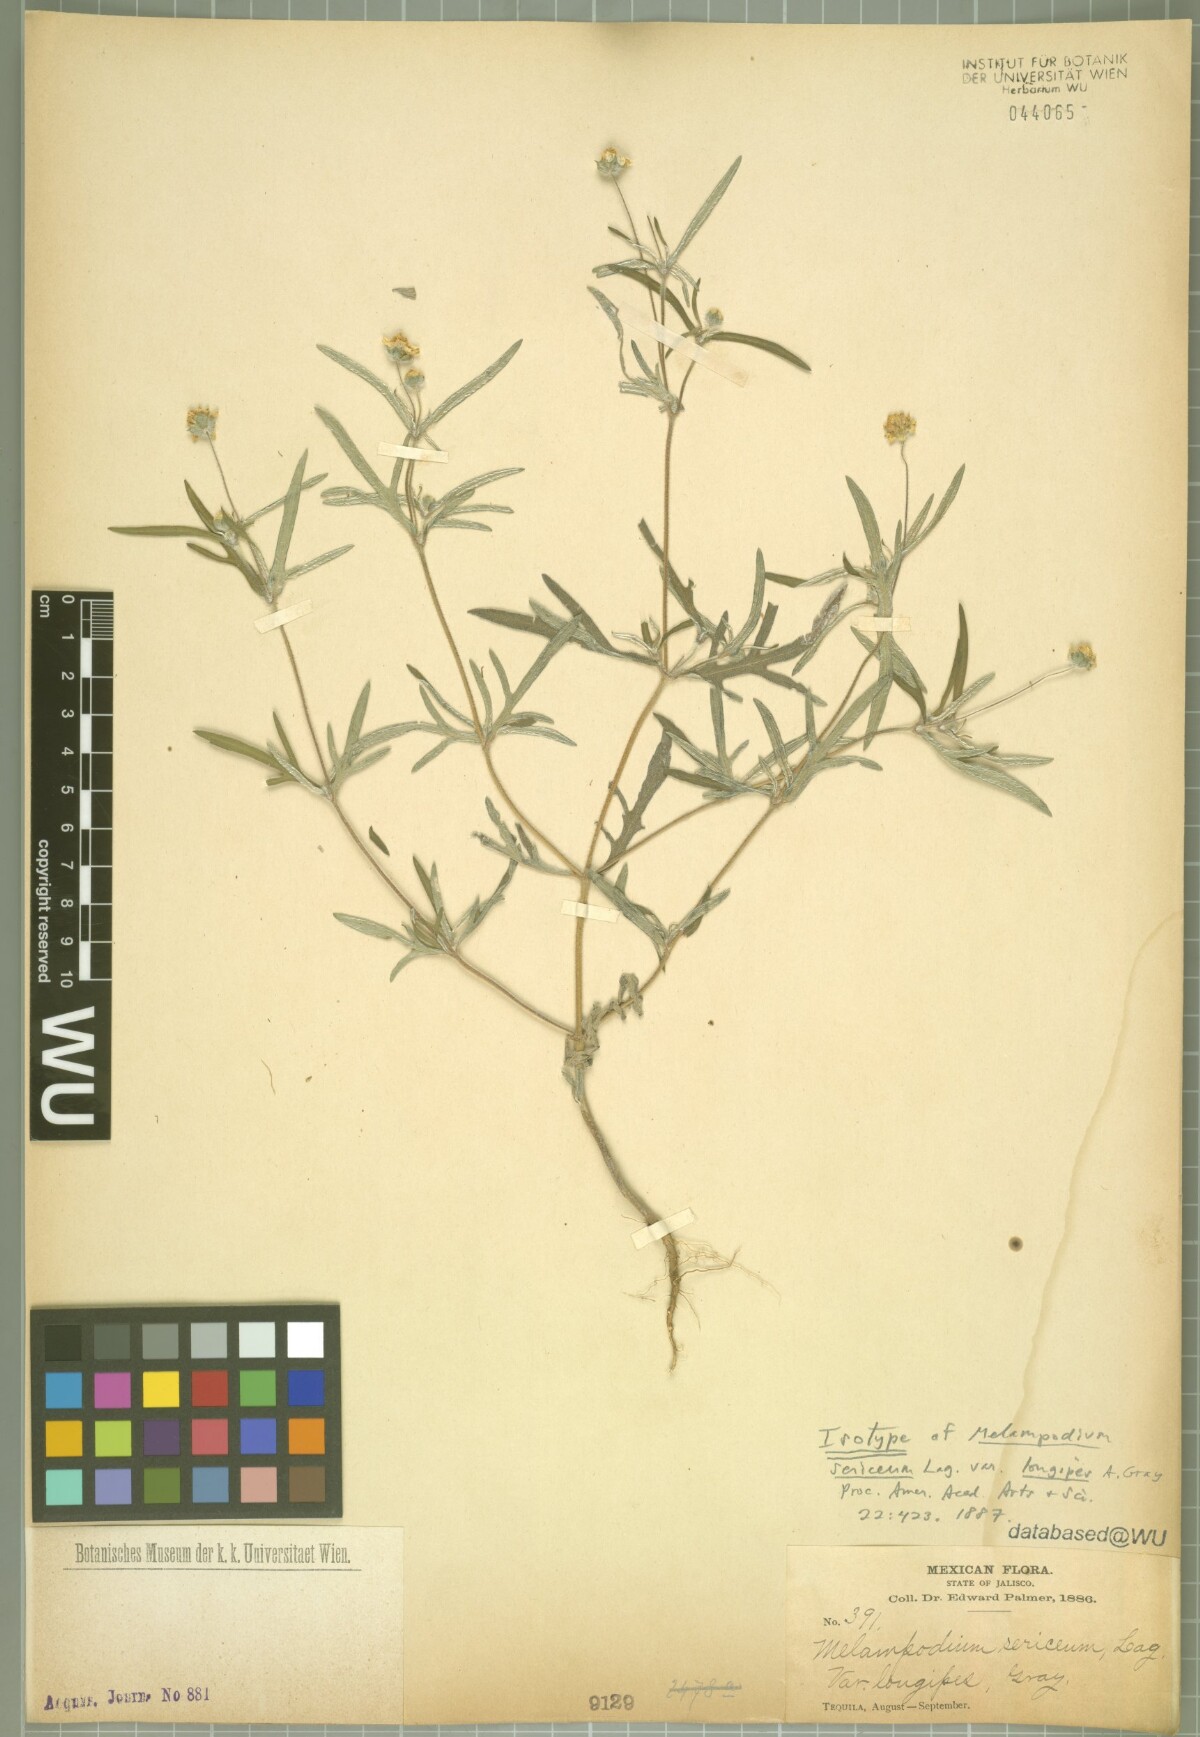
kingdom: Plantae
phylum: Tracheophyta
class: Magnoliopsida
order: Asterales
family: Asteraceae
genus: Melampodium
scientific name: Melampodium longipes
